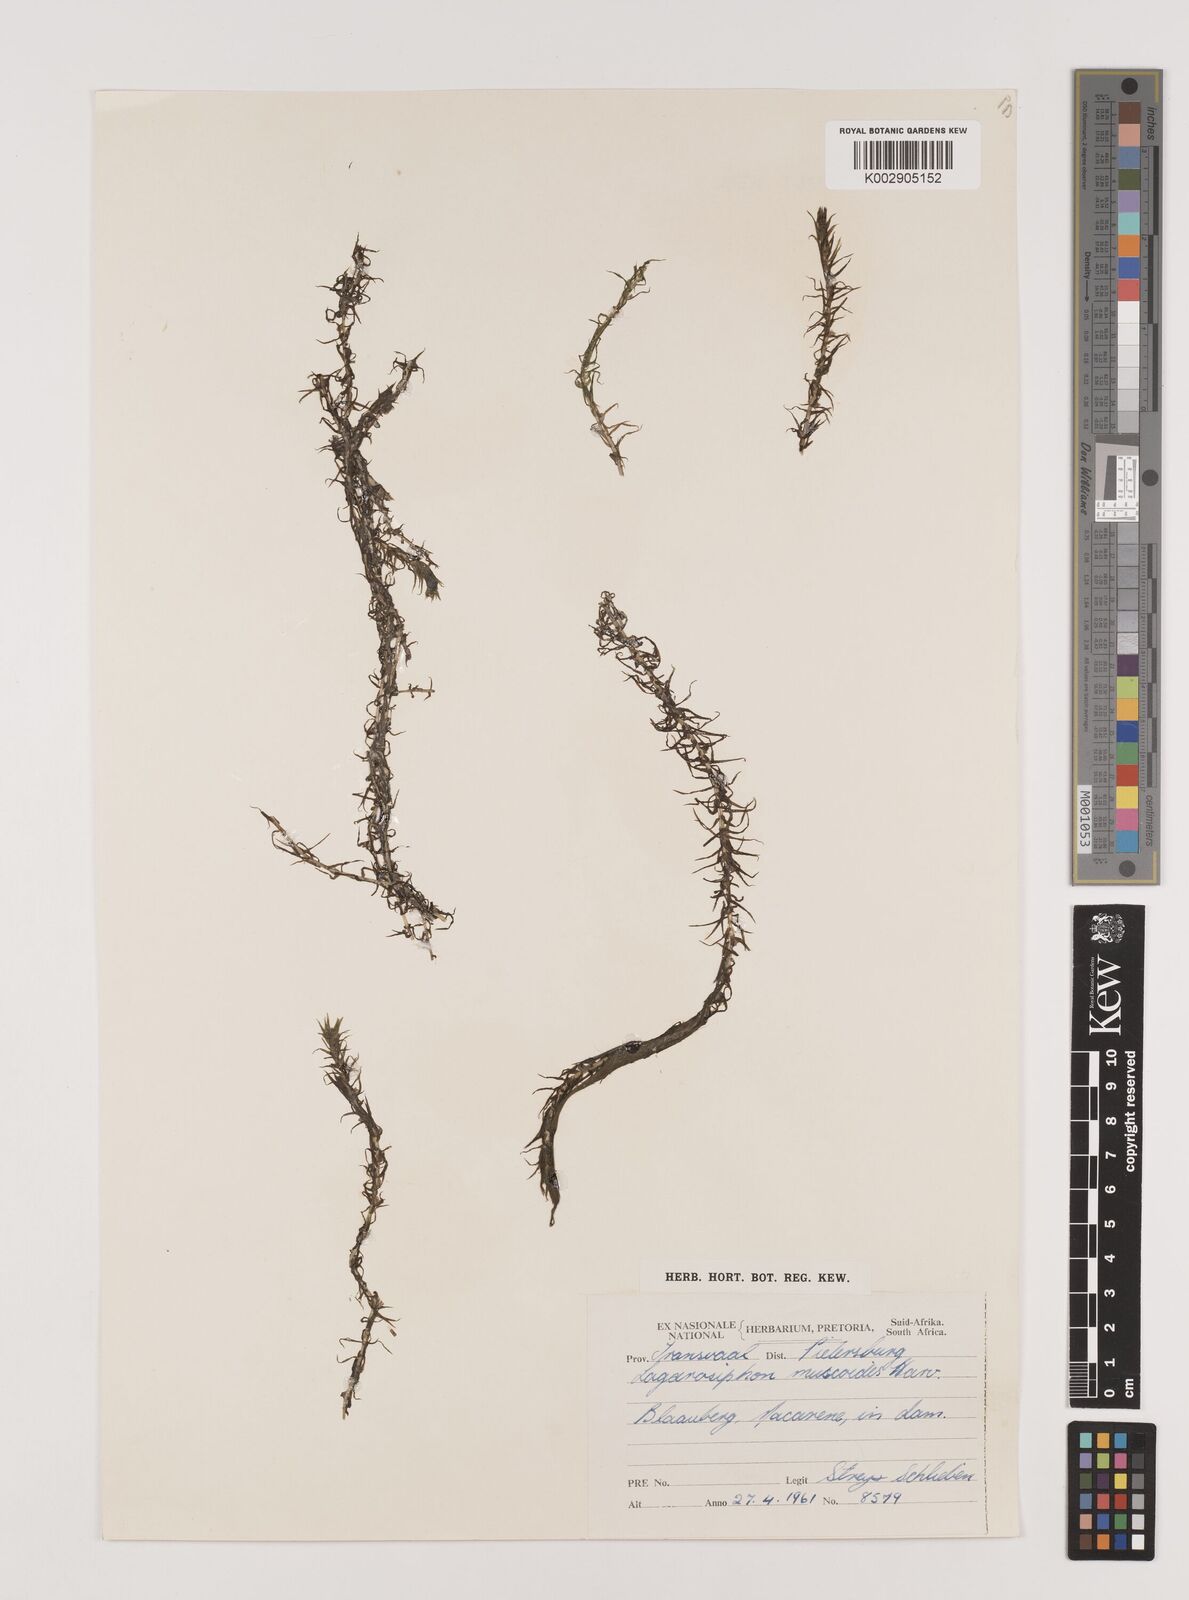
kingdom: Plantae
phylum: Tracheophyta
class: Liliopsida
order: Alismatales
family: Hydrocharitaceae
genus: Lagarosiphon
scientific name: Lagarosiphon muscoides
